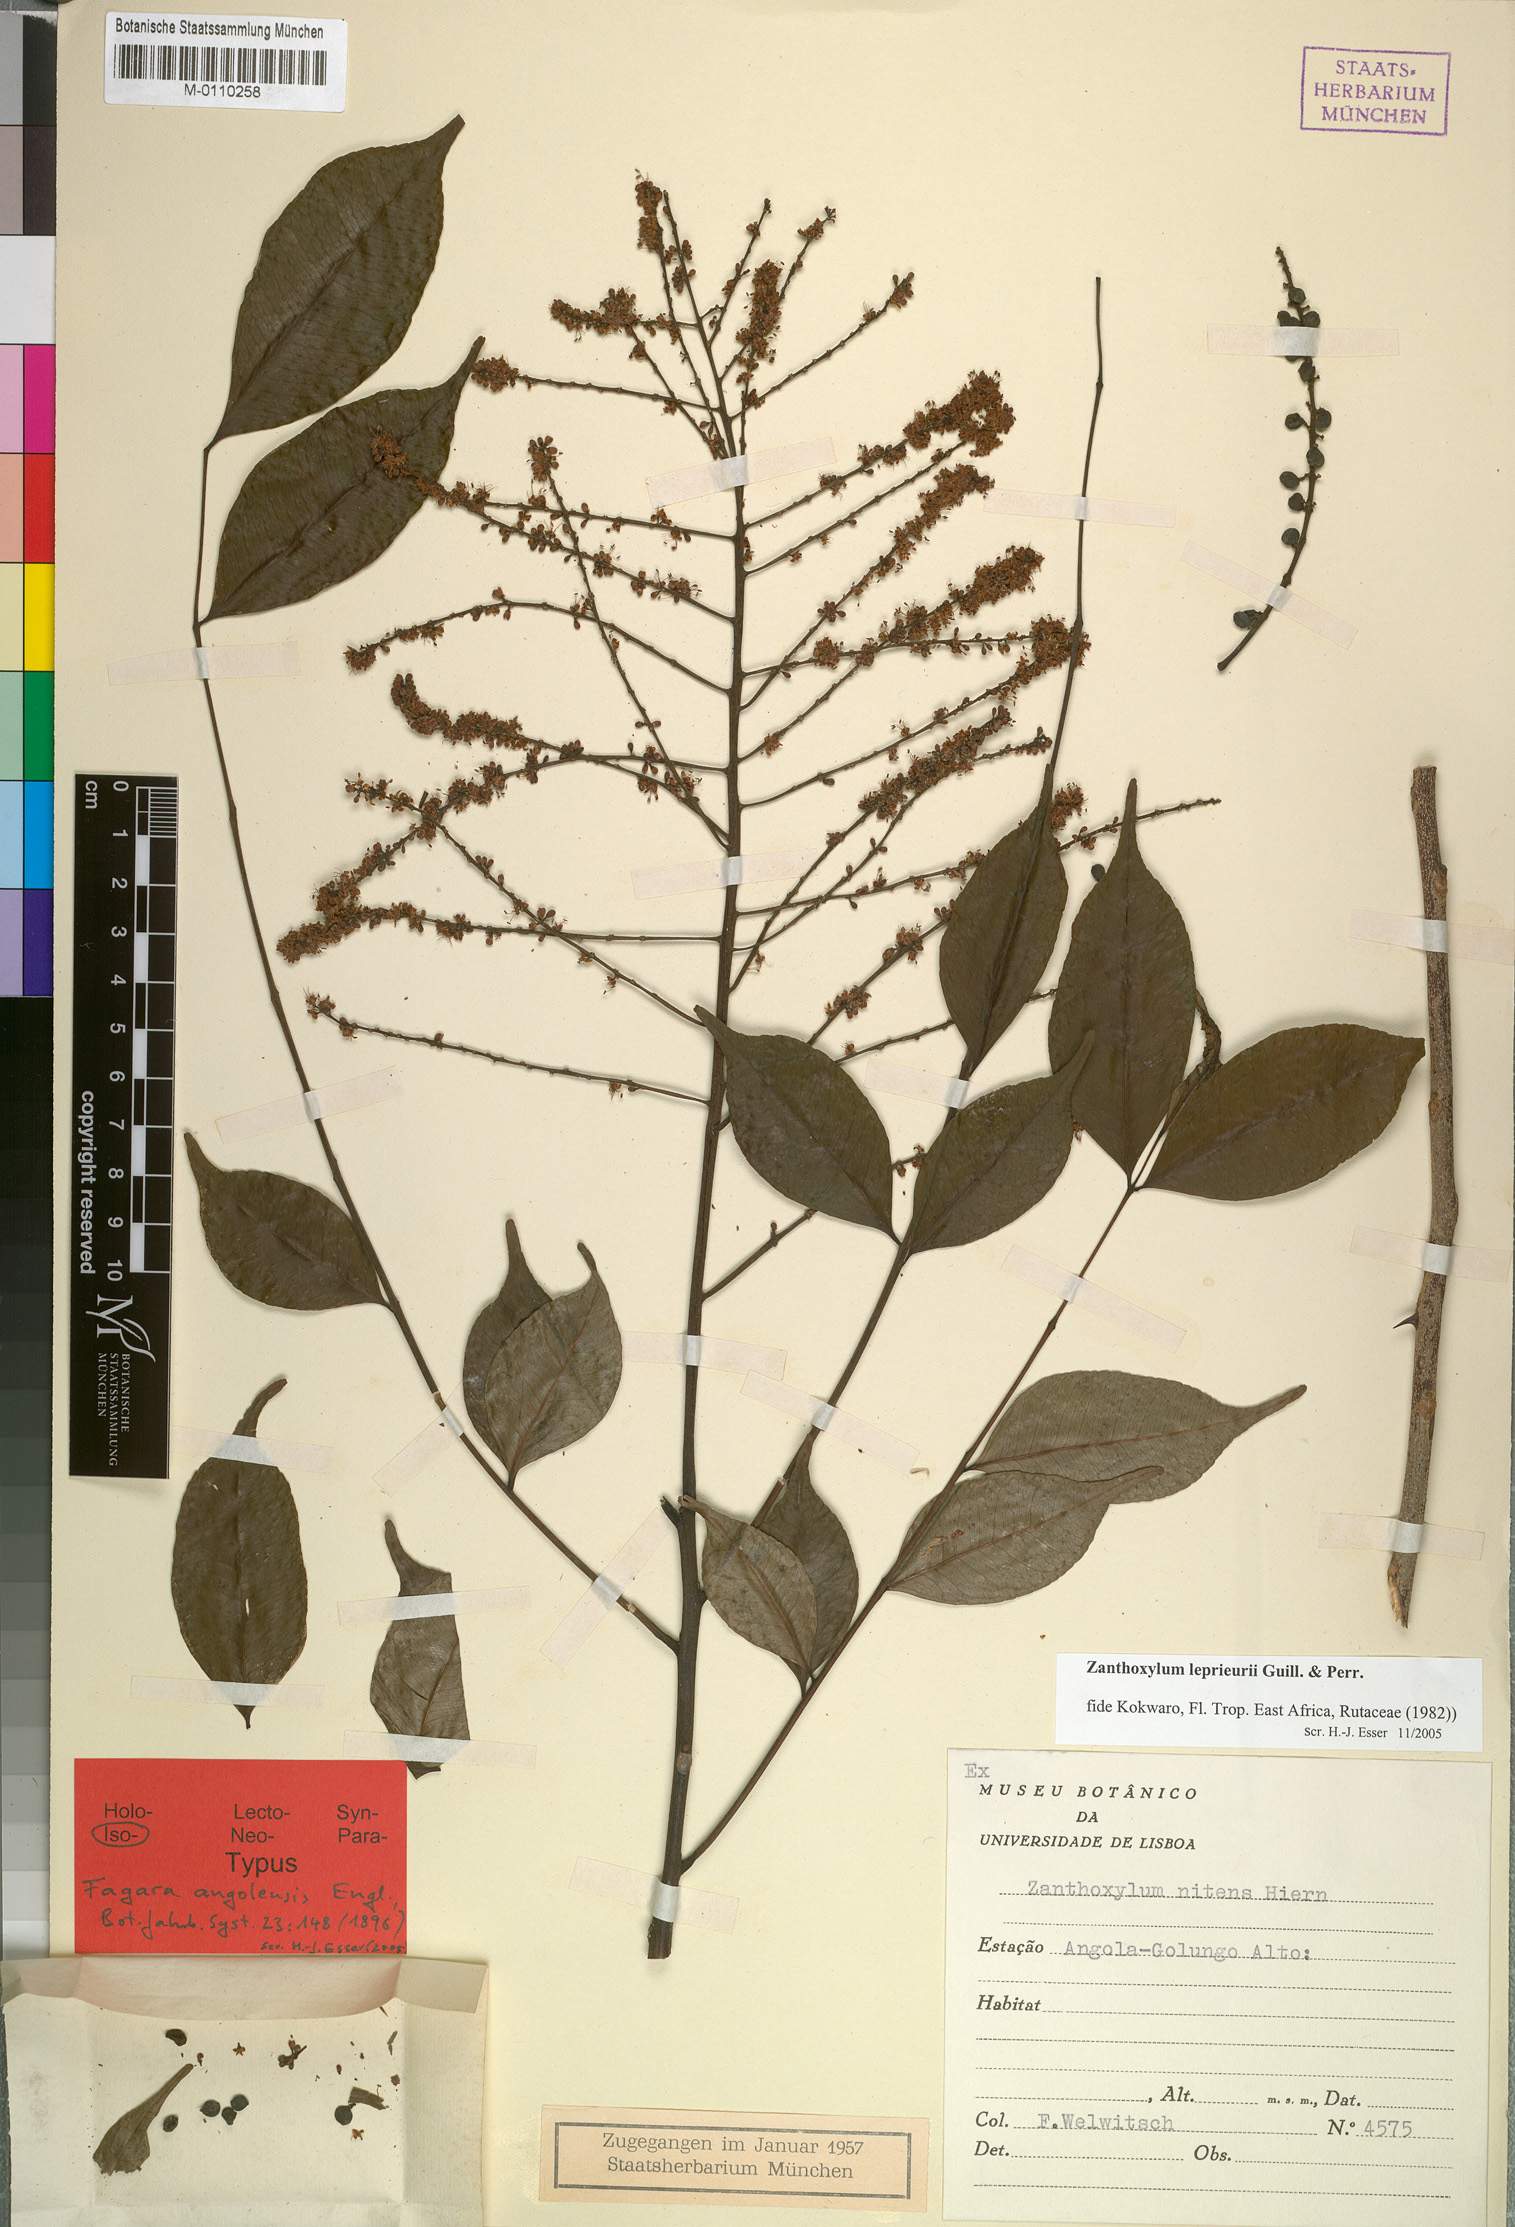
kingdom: Plantae
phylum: Tracheophyta
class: Magnoliopsida
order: Sapindales
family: Rutaceae
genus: Zanthoxylum
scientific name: Zanthoxylum leprieurii
